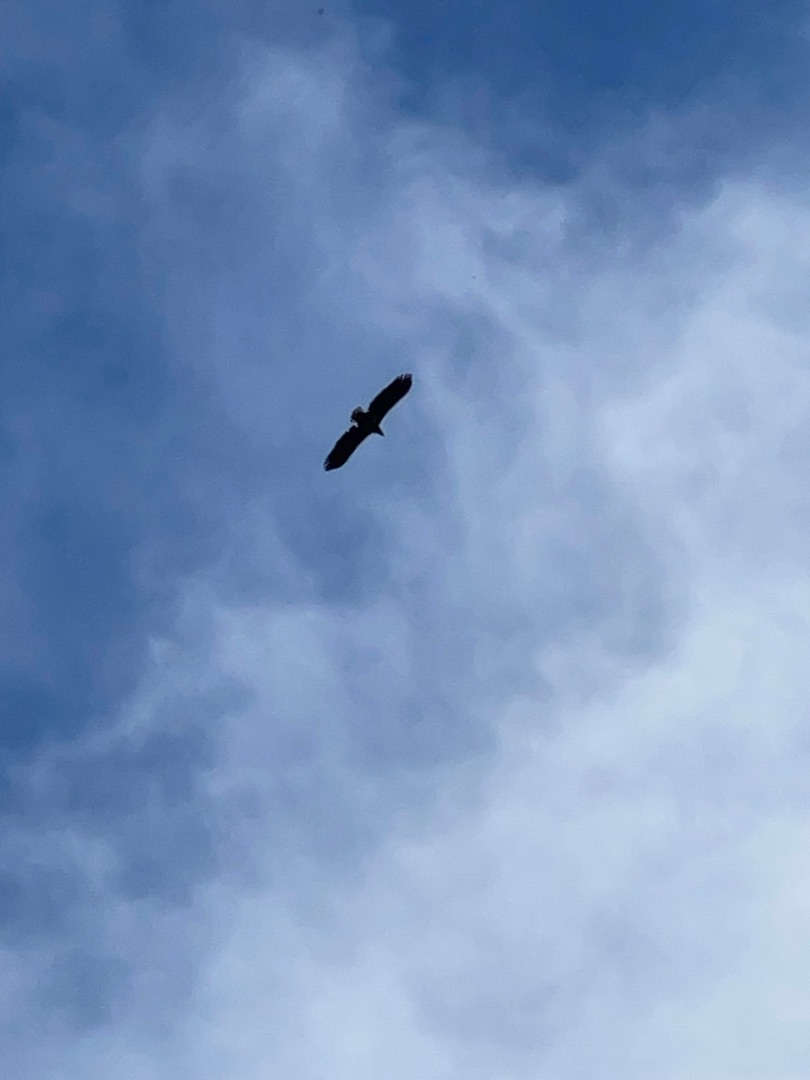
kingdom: Animalia
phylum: Chordata
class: Aves
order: Accipitriformes
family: Accipitridae
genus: Haliaeetus
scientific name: Haliaeetus albicilla
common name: Havørn
